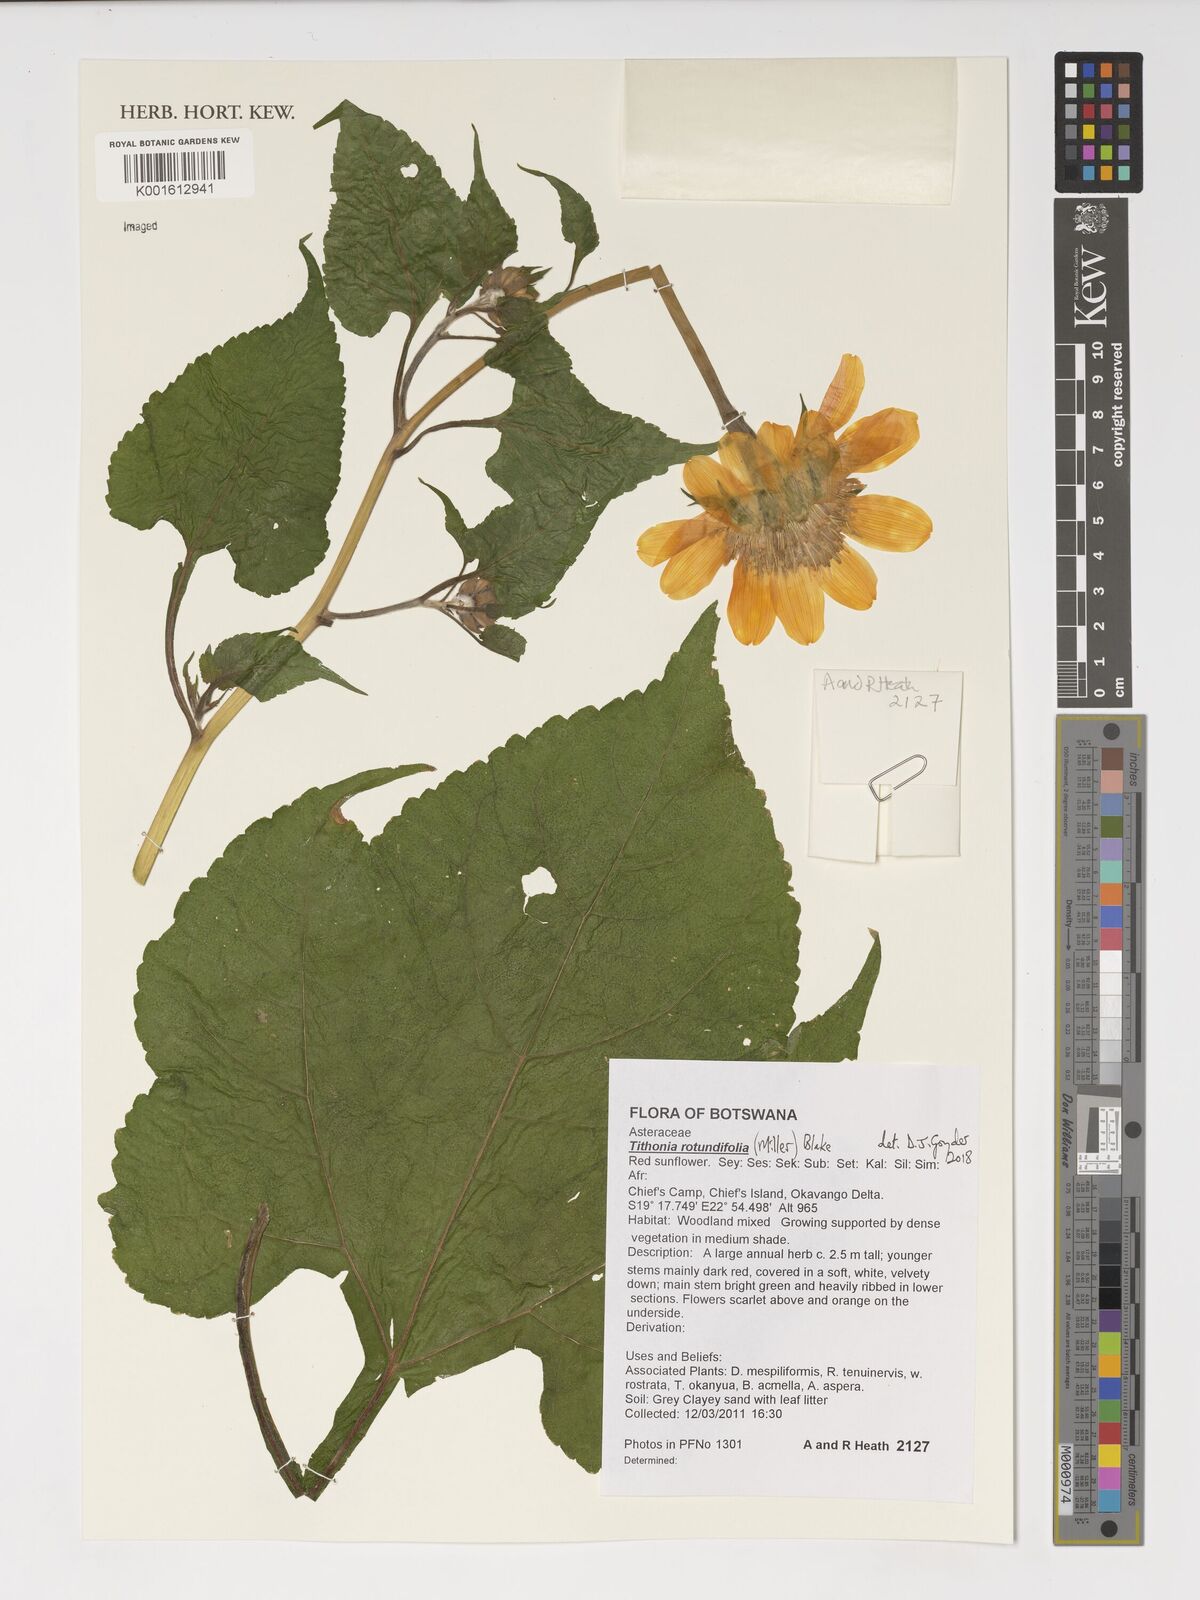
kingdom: Plantae
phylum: Tracheophyta
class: Magnoliopsida
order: Asterales
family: Asteraceae
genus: Tithonia
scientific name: Tithonia rotundifolia
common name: Sunflower
